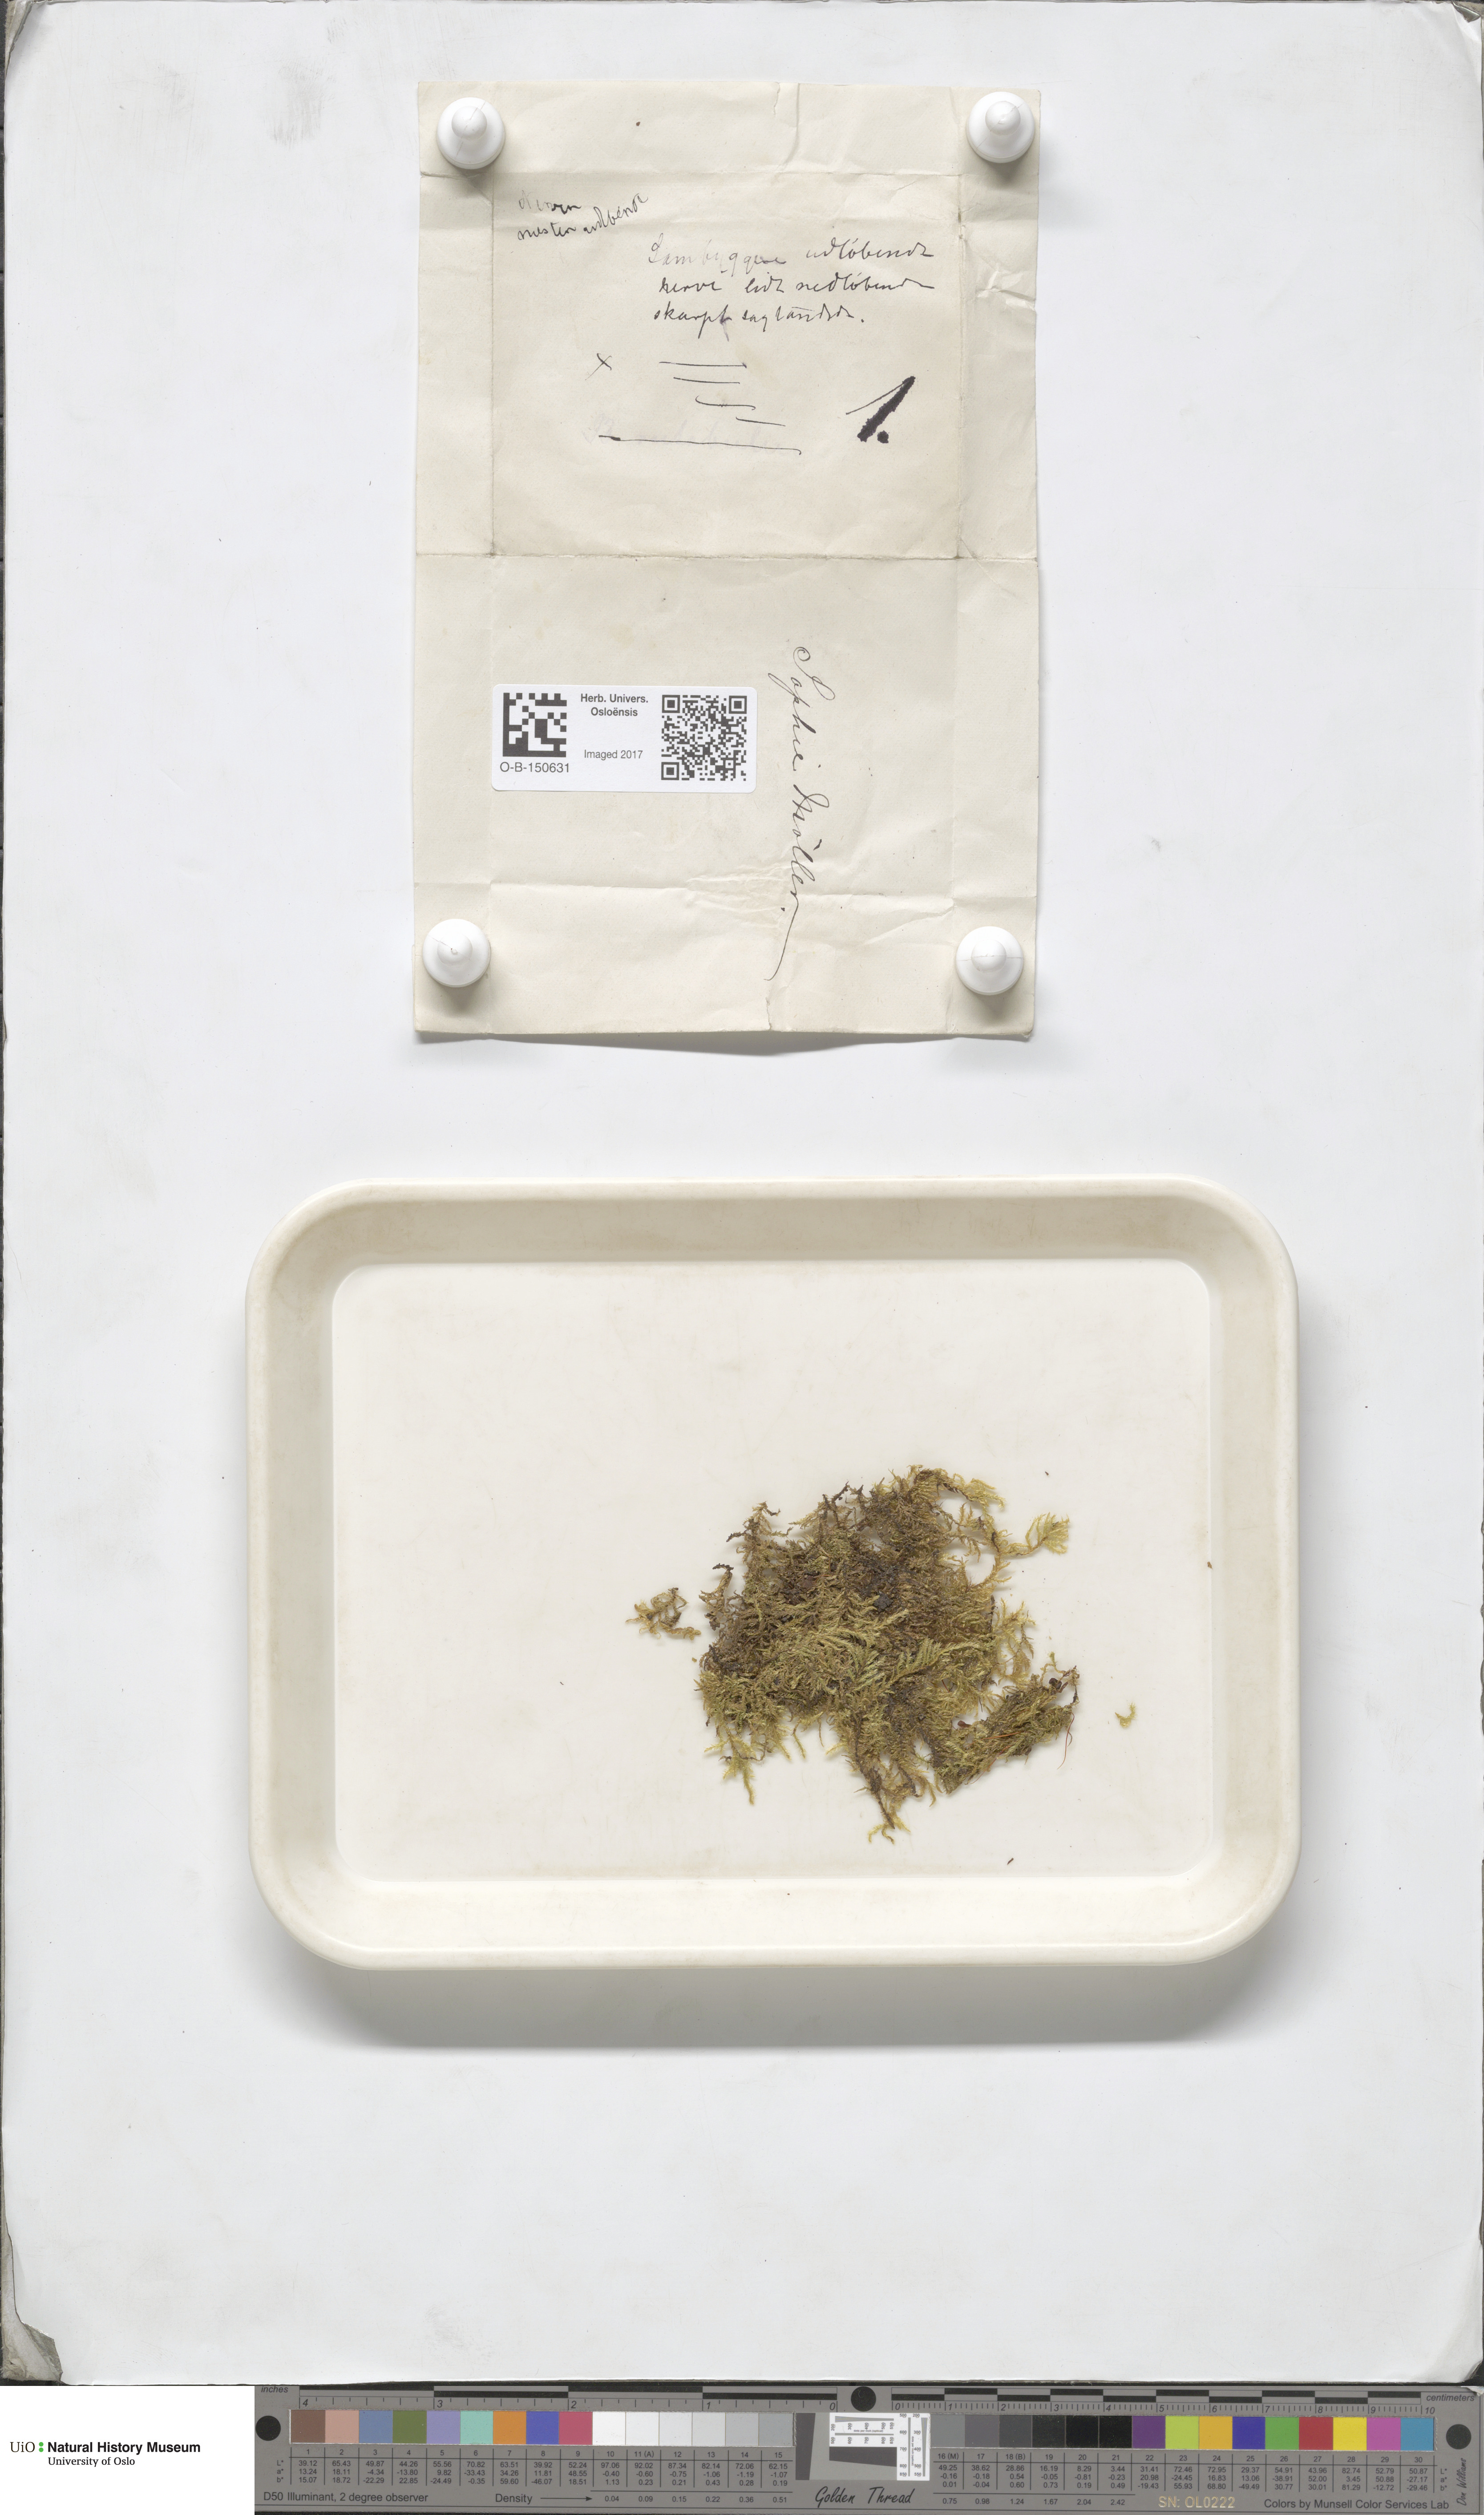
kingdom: Plantae
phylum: Bryophyta
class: Bryopsida
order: Hypnales
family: Brachytheciaceae
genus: Sciuro-hypnum
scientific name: Sciuro-hypnum starkei
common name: Starke's feather-moss
